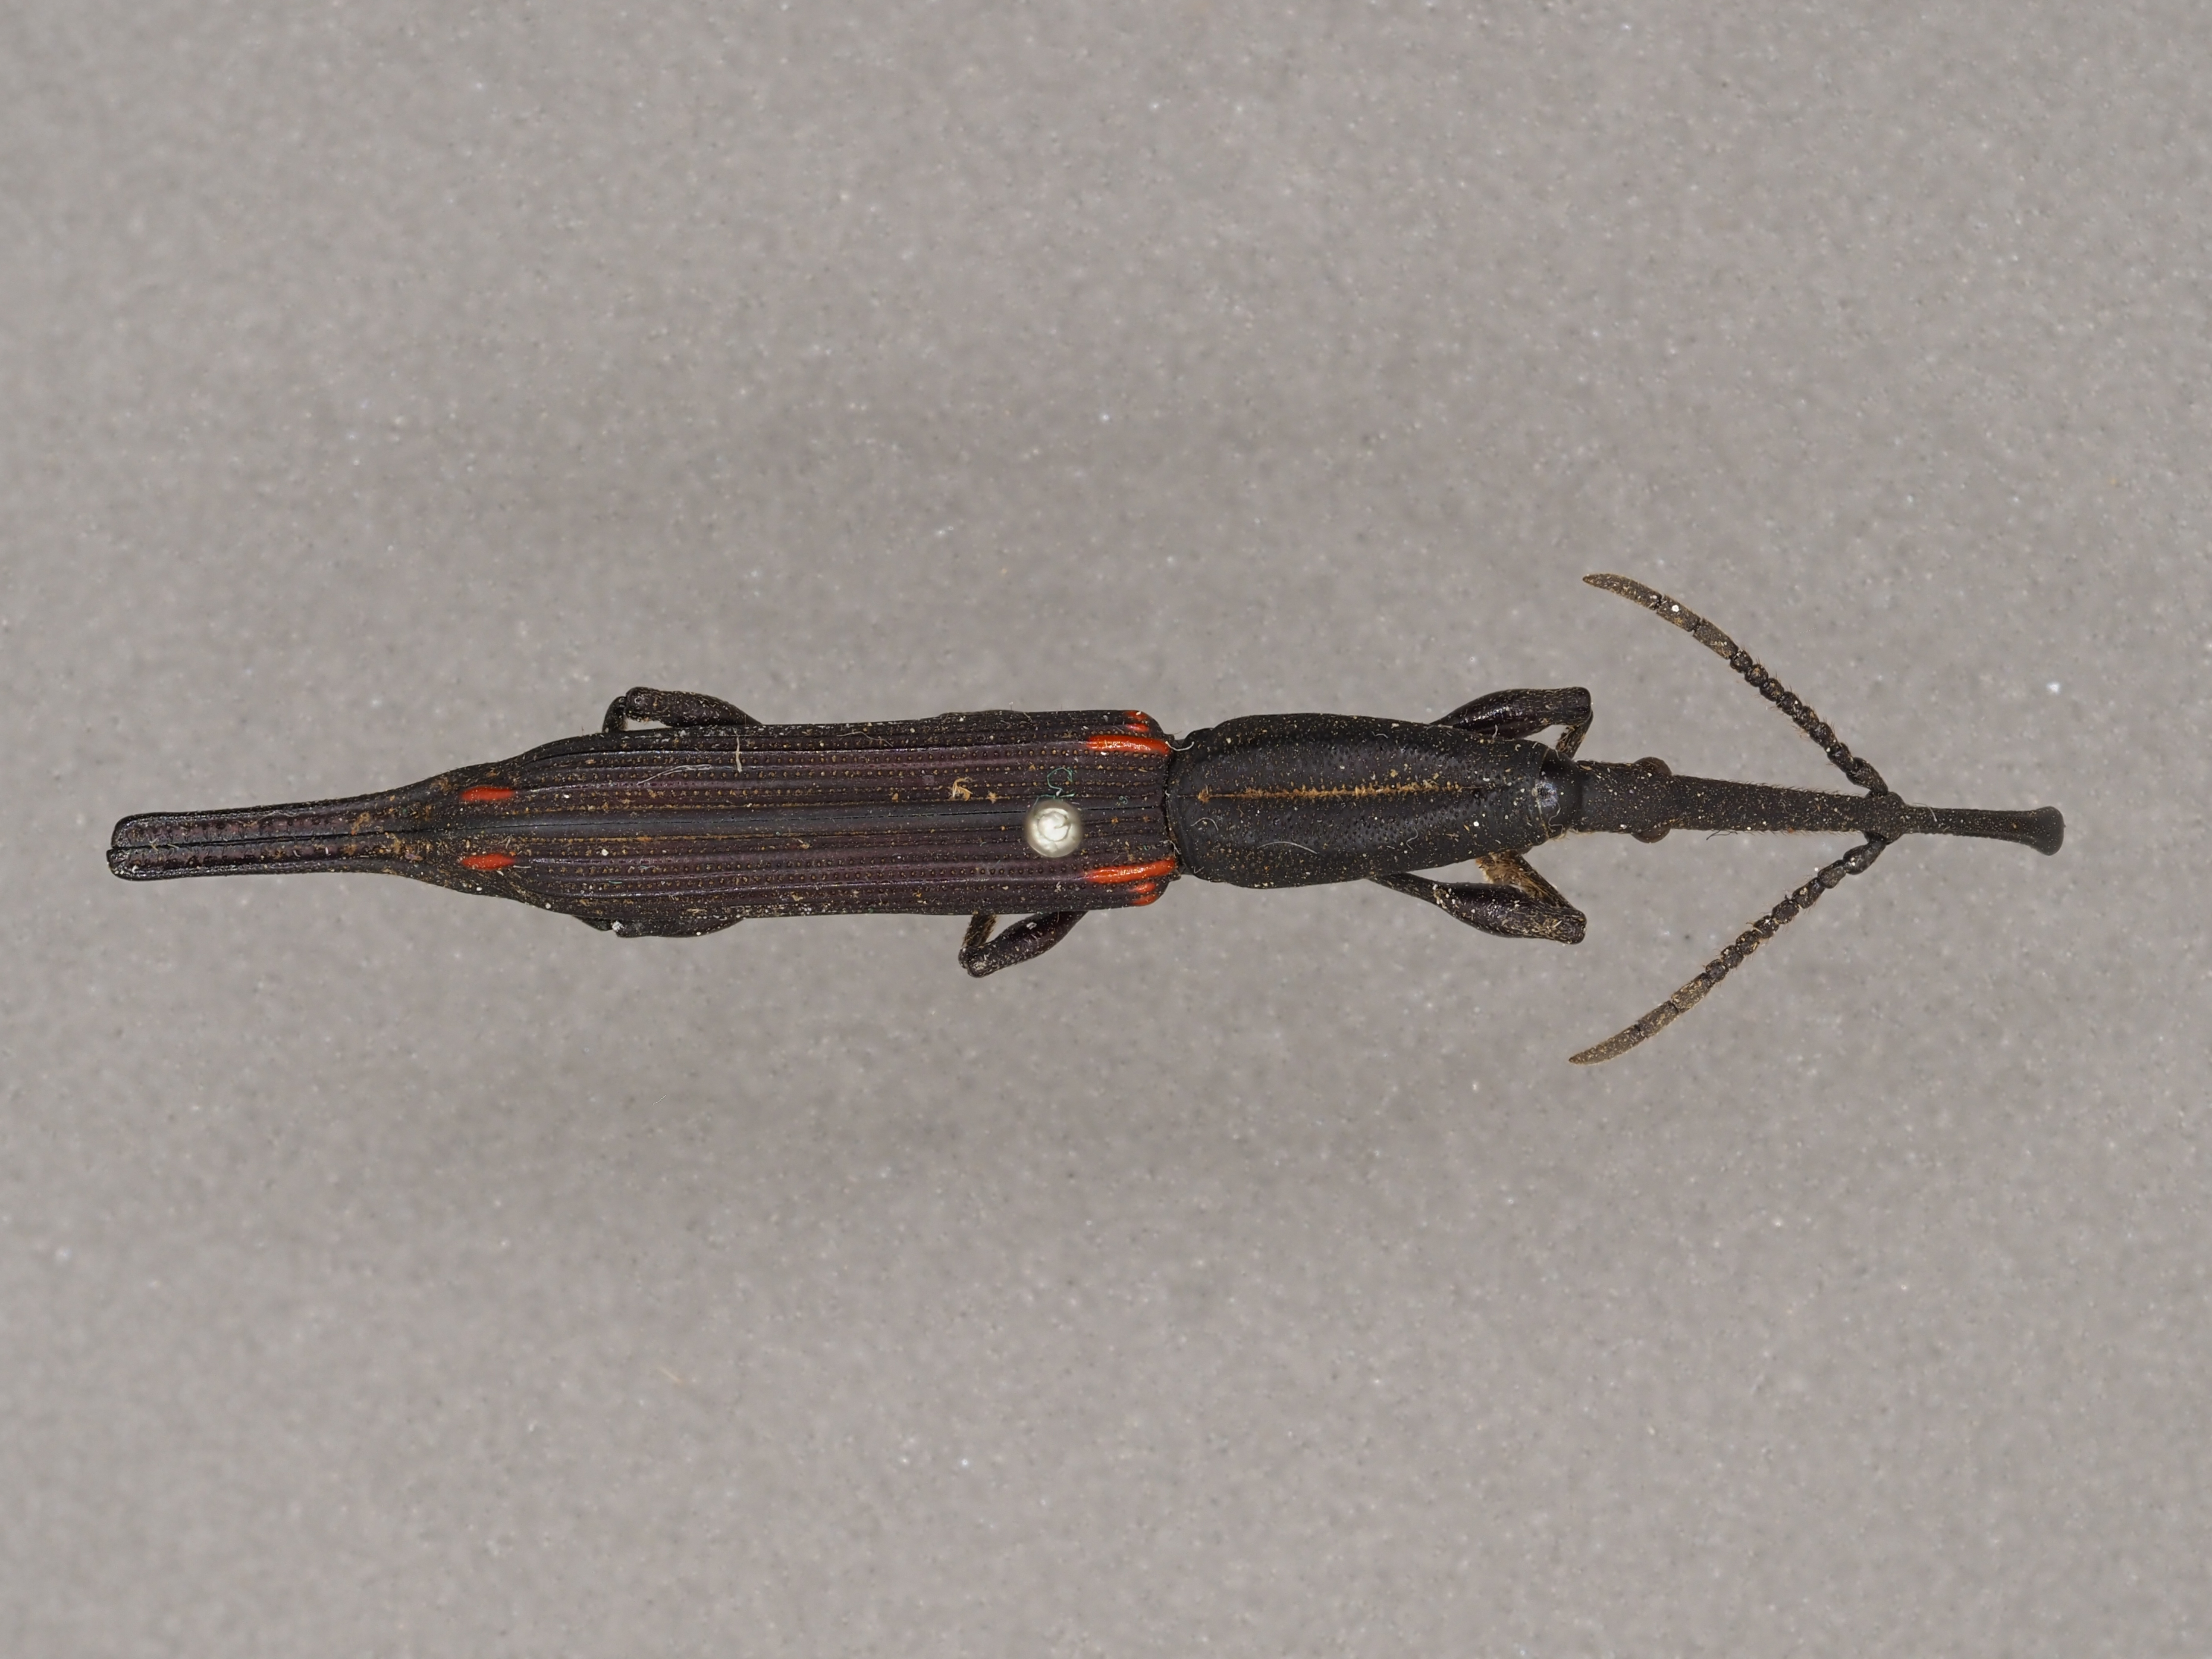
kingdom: Animalia
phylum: Arthropoda
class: Insecta
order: Coleoptera
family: Brentidae
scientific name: Brentidae
